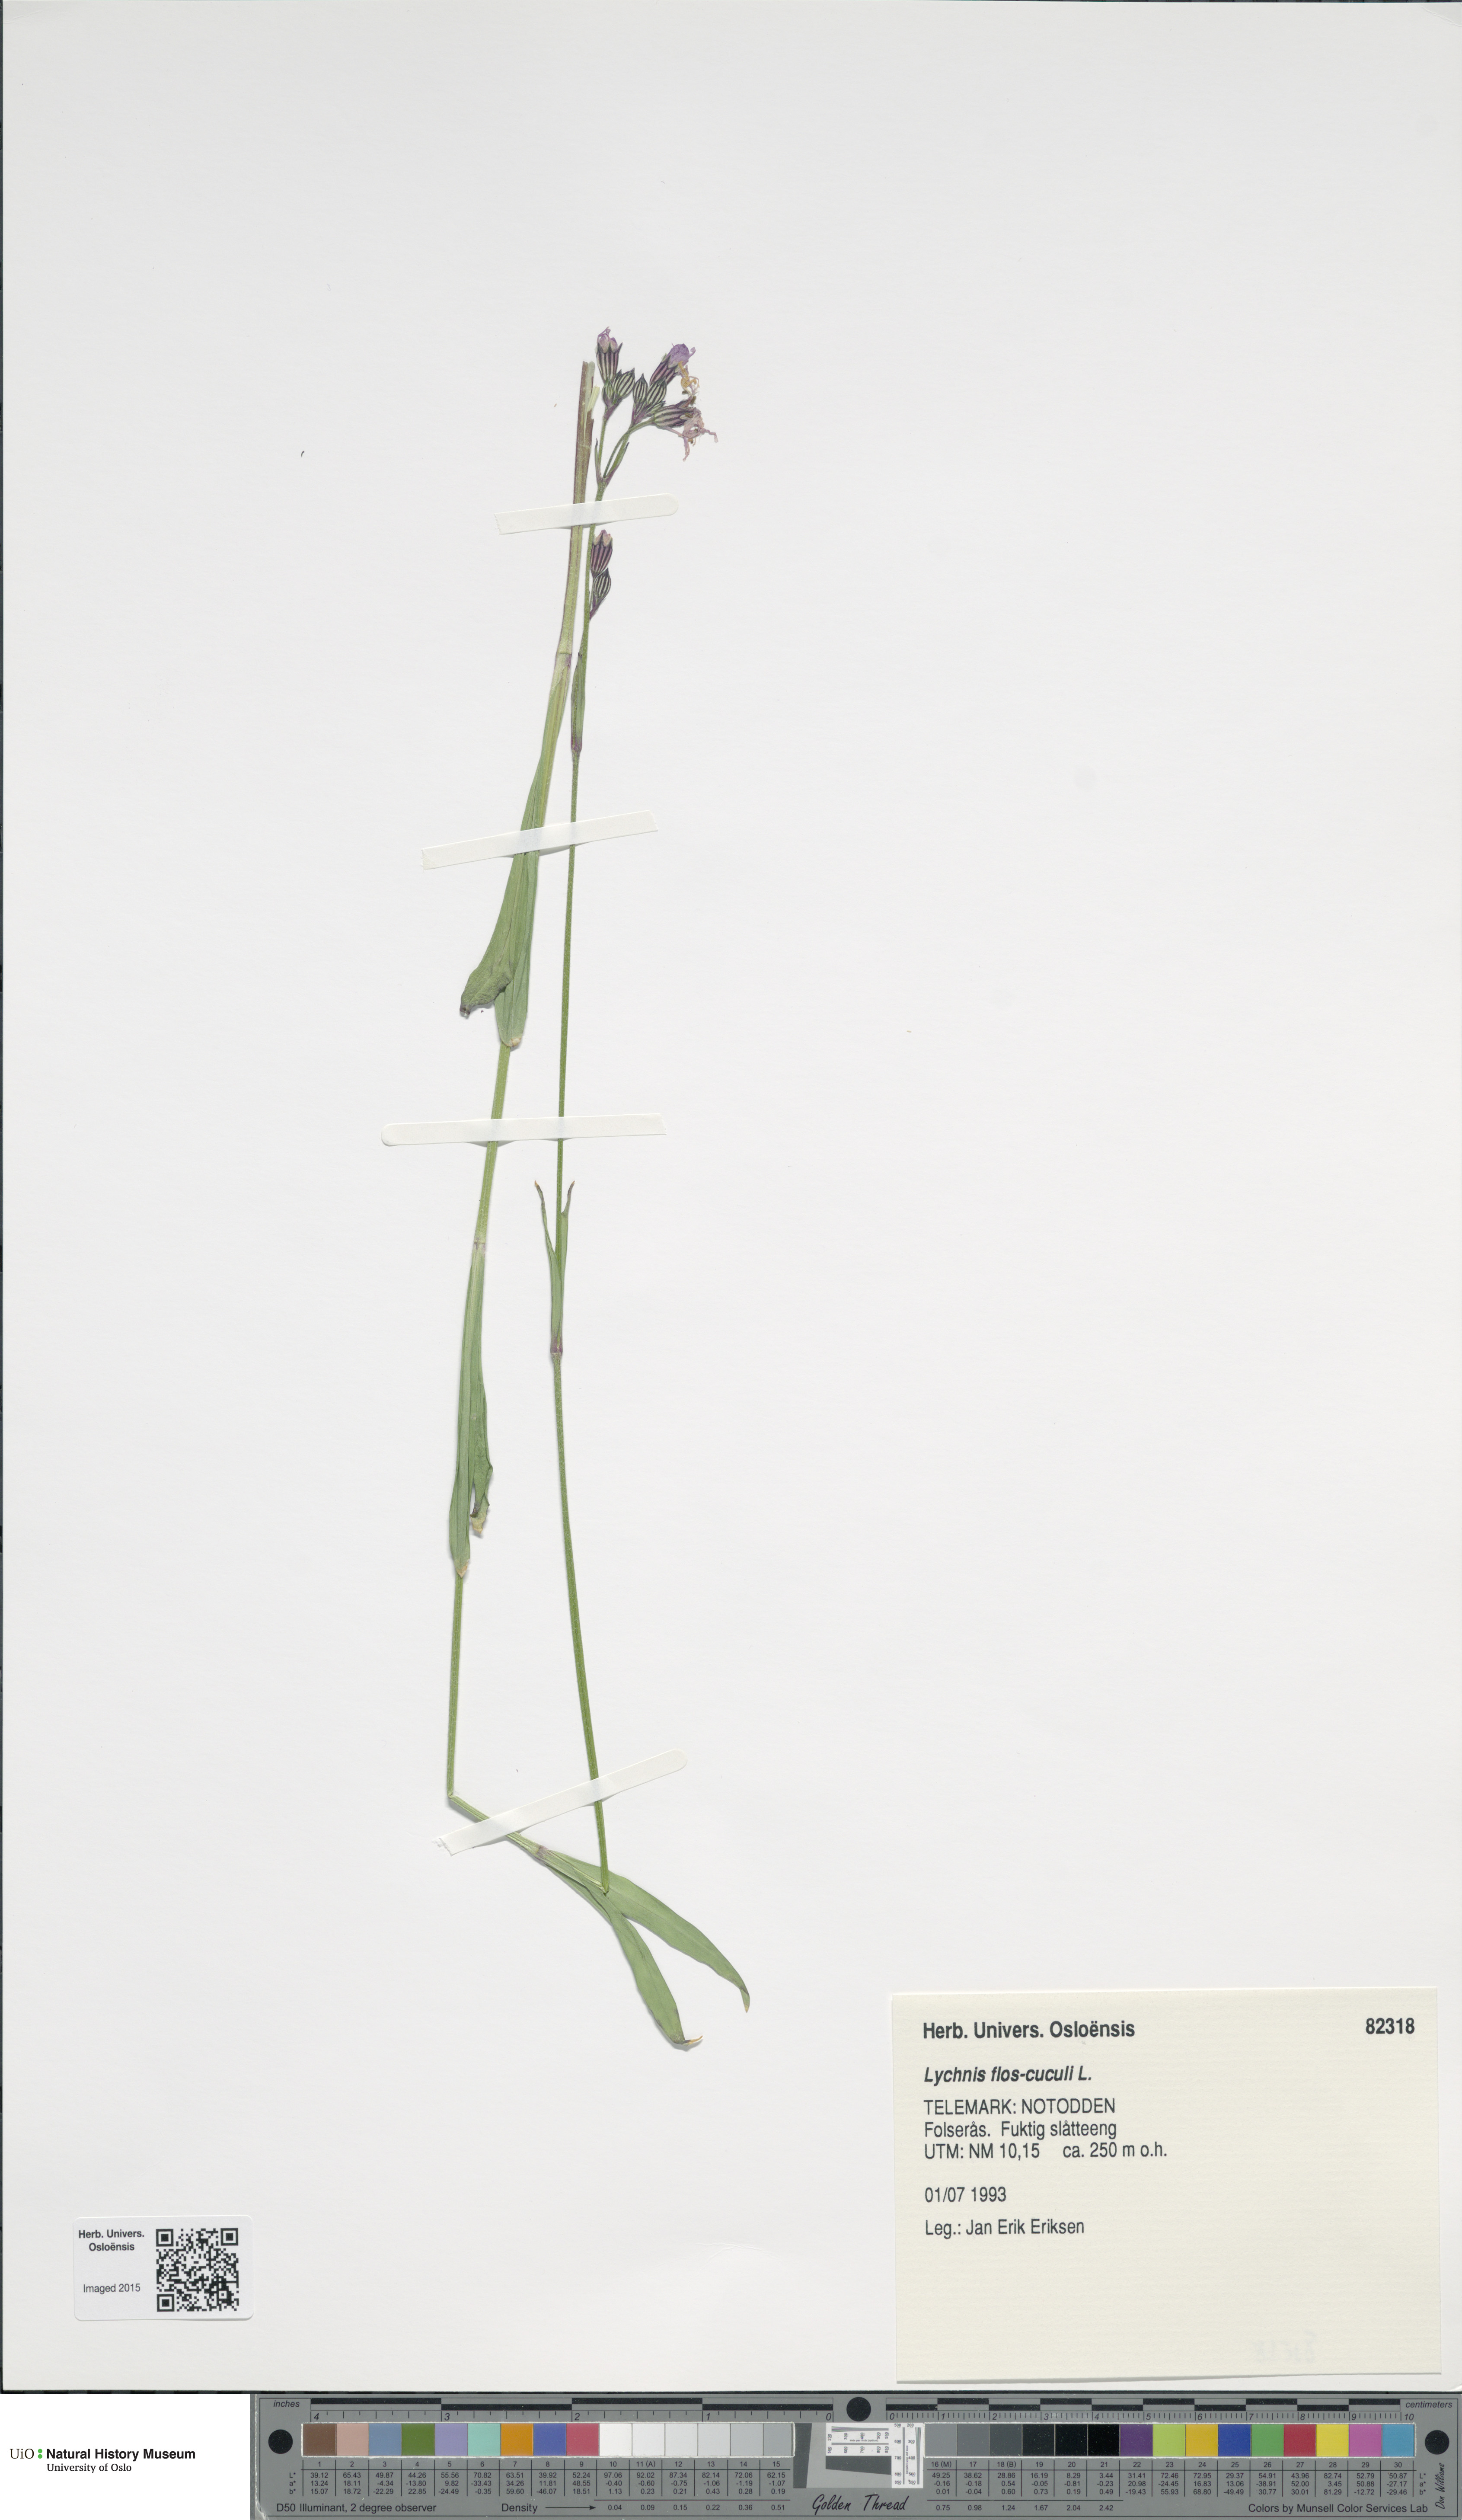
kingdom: Plantae
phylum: Tracheophyta
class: Magnoliopsida
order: Caryophyllales
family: Caryophyllaceae
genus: Silene
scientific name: Silene flos-cuculi
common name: Ragged-robin
